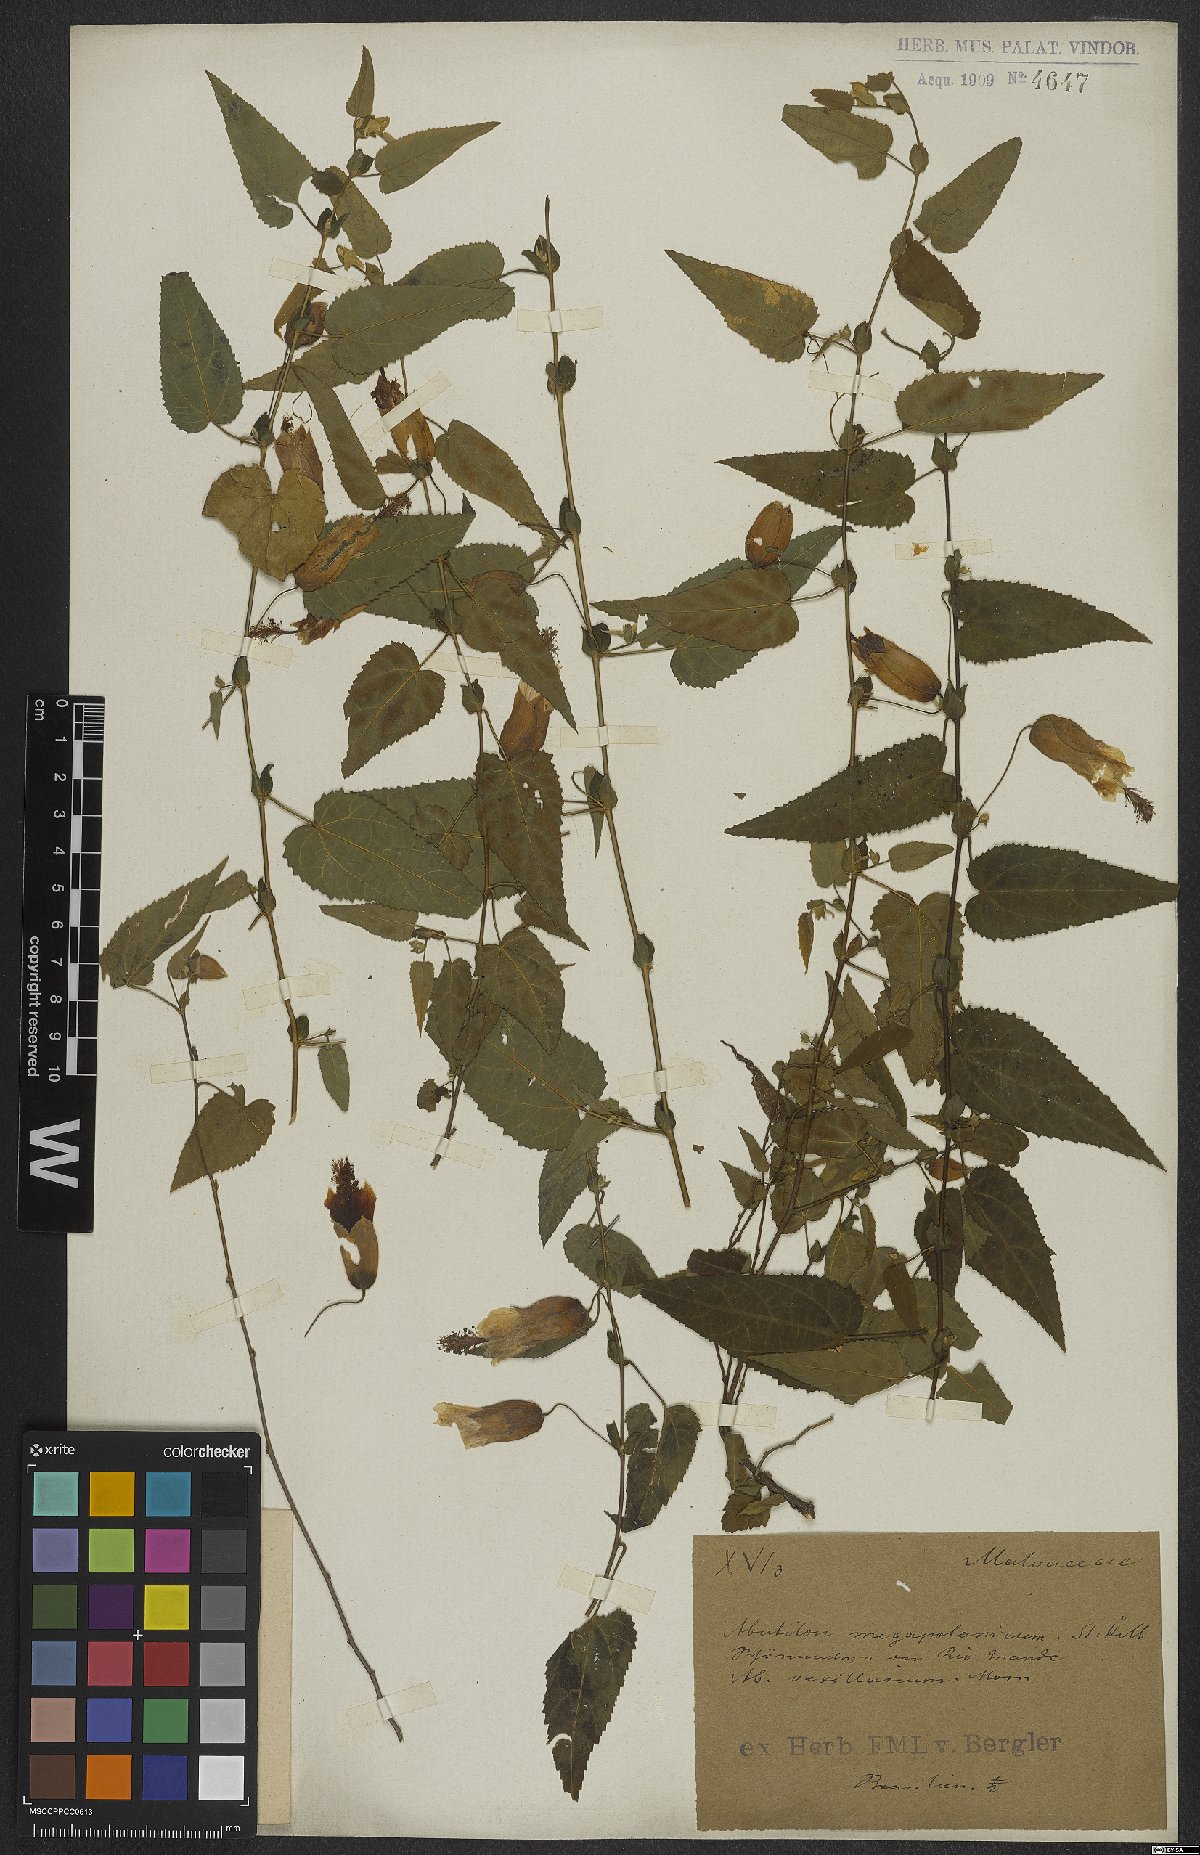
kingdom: Plantae
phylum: Tracheophyta
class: Magnoliopsida
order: Malvales
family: Malvaceae
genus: Callianthe
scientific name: Callianthe megapotamica
